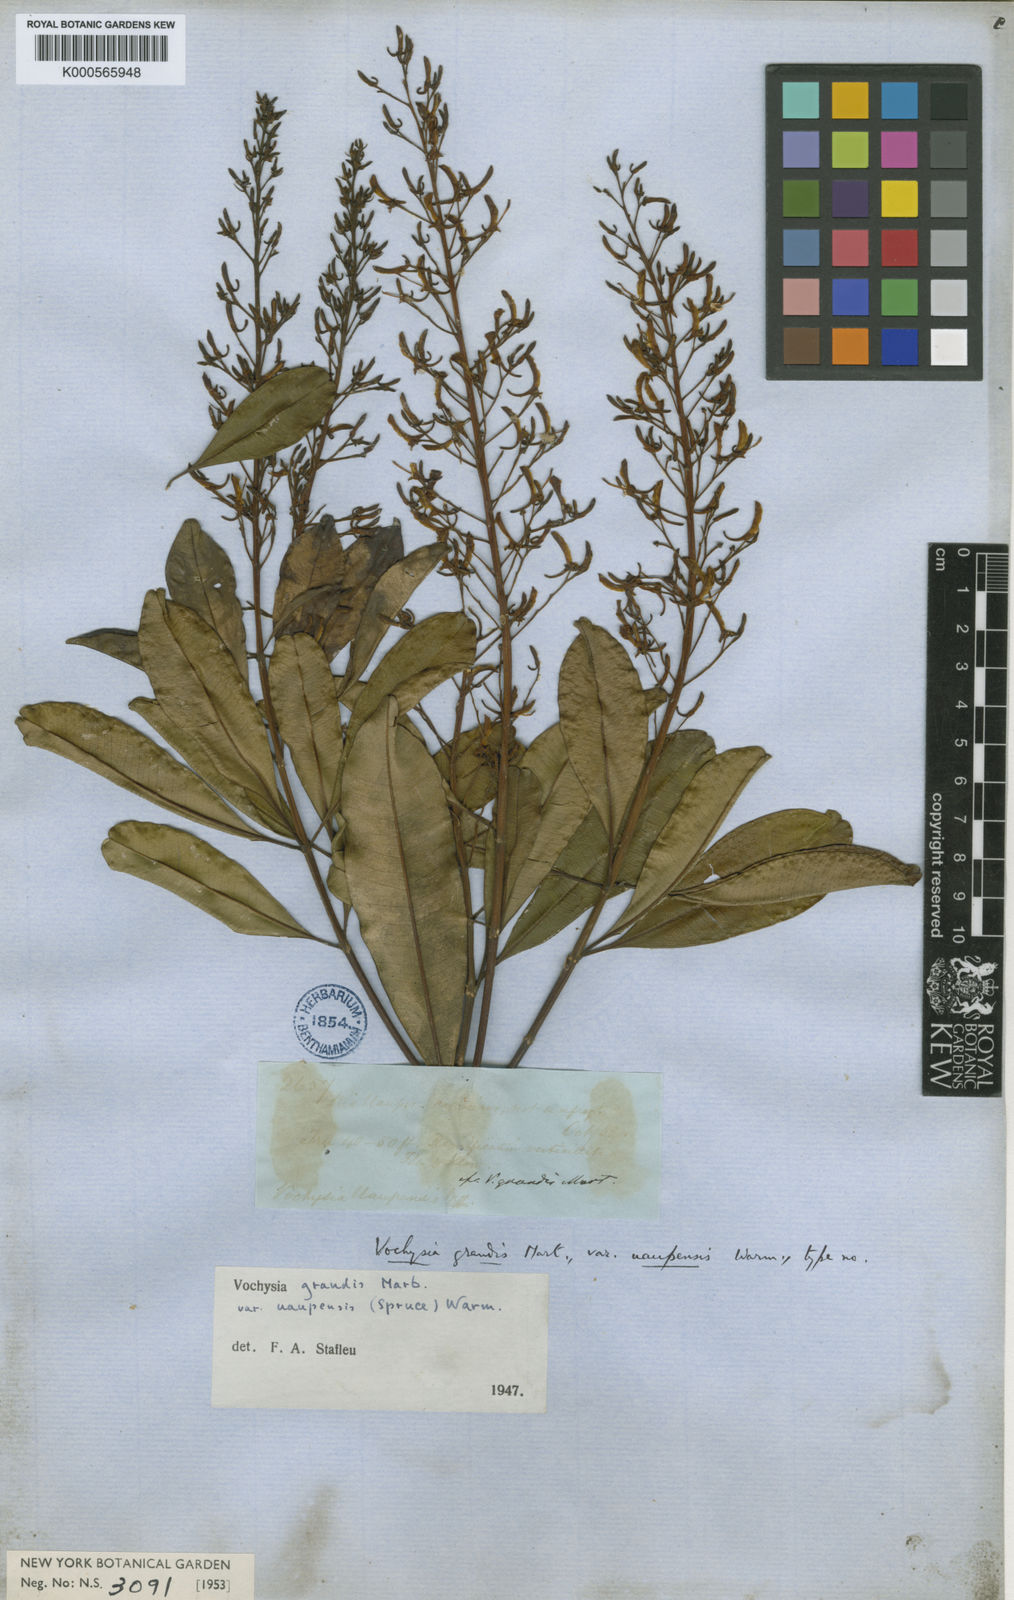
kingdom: Plantae
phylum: Tracheophyta
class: Magnoliopsida
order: Myrtales
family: Vochysiaceae
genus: Vochysia
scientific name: Vochysia grandis
